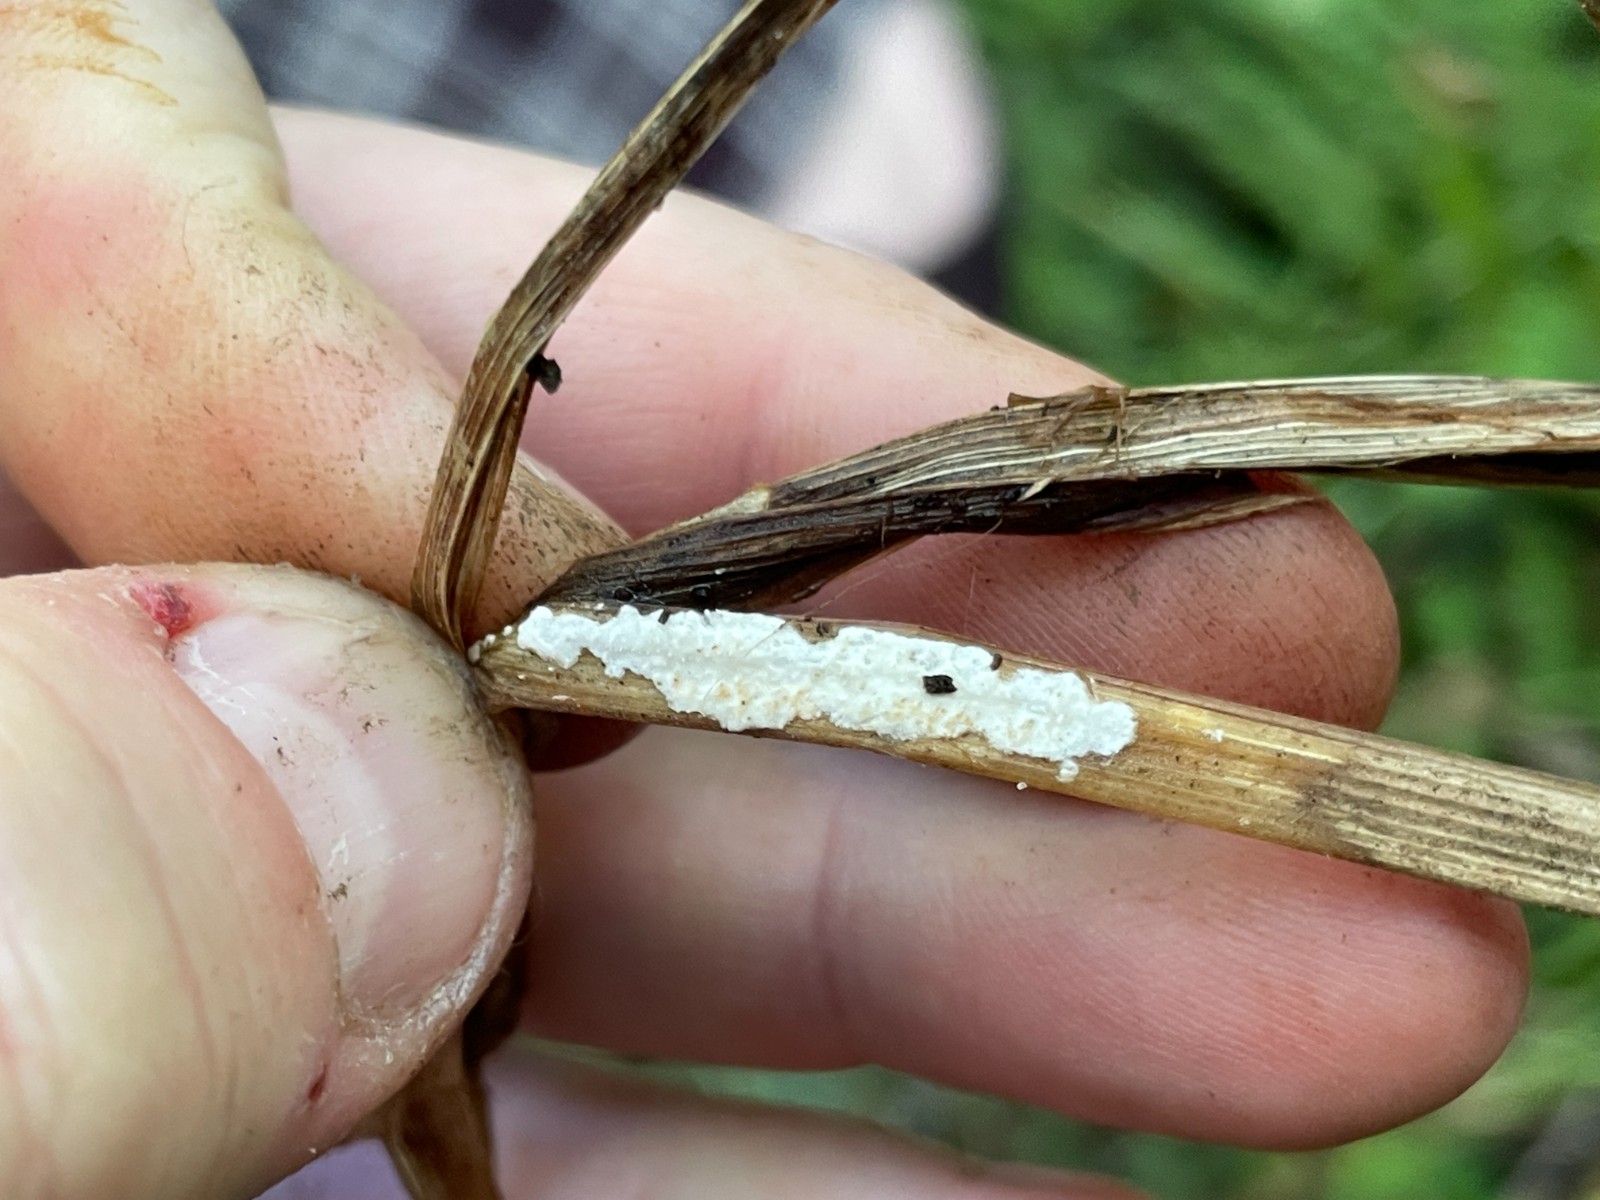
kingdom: Fungi
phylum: Basidiomycota
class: Agaricomycetes
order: Polyporales
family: Polyporaceae
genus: Epithele
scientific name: Epithele typhae
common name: starpig
